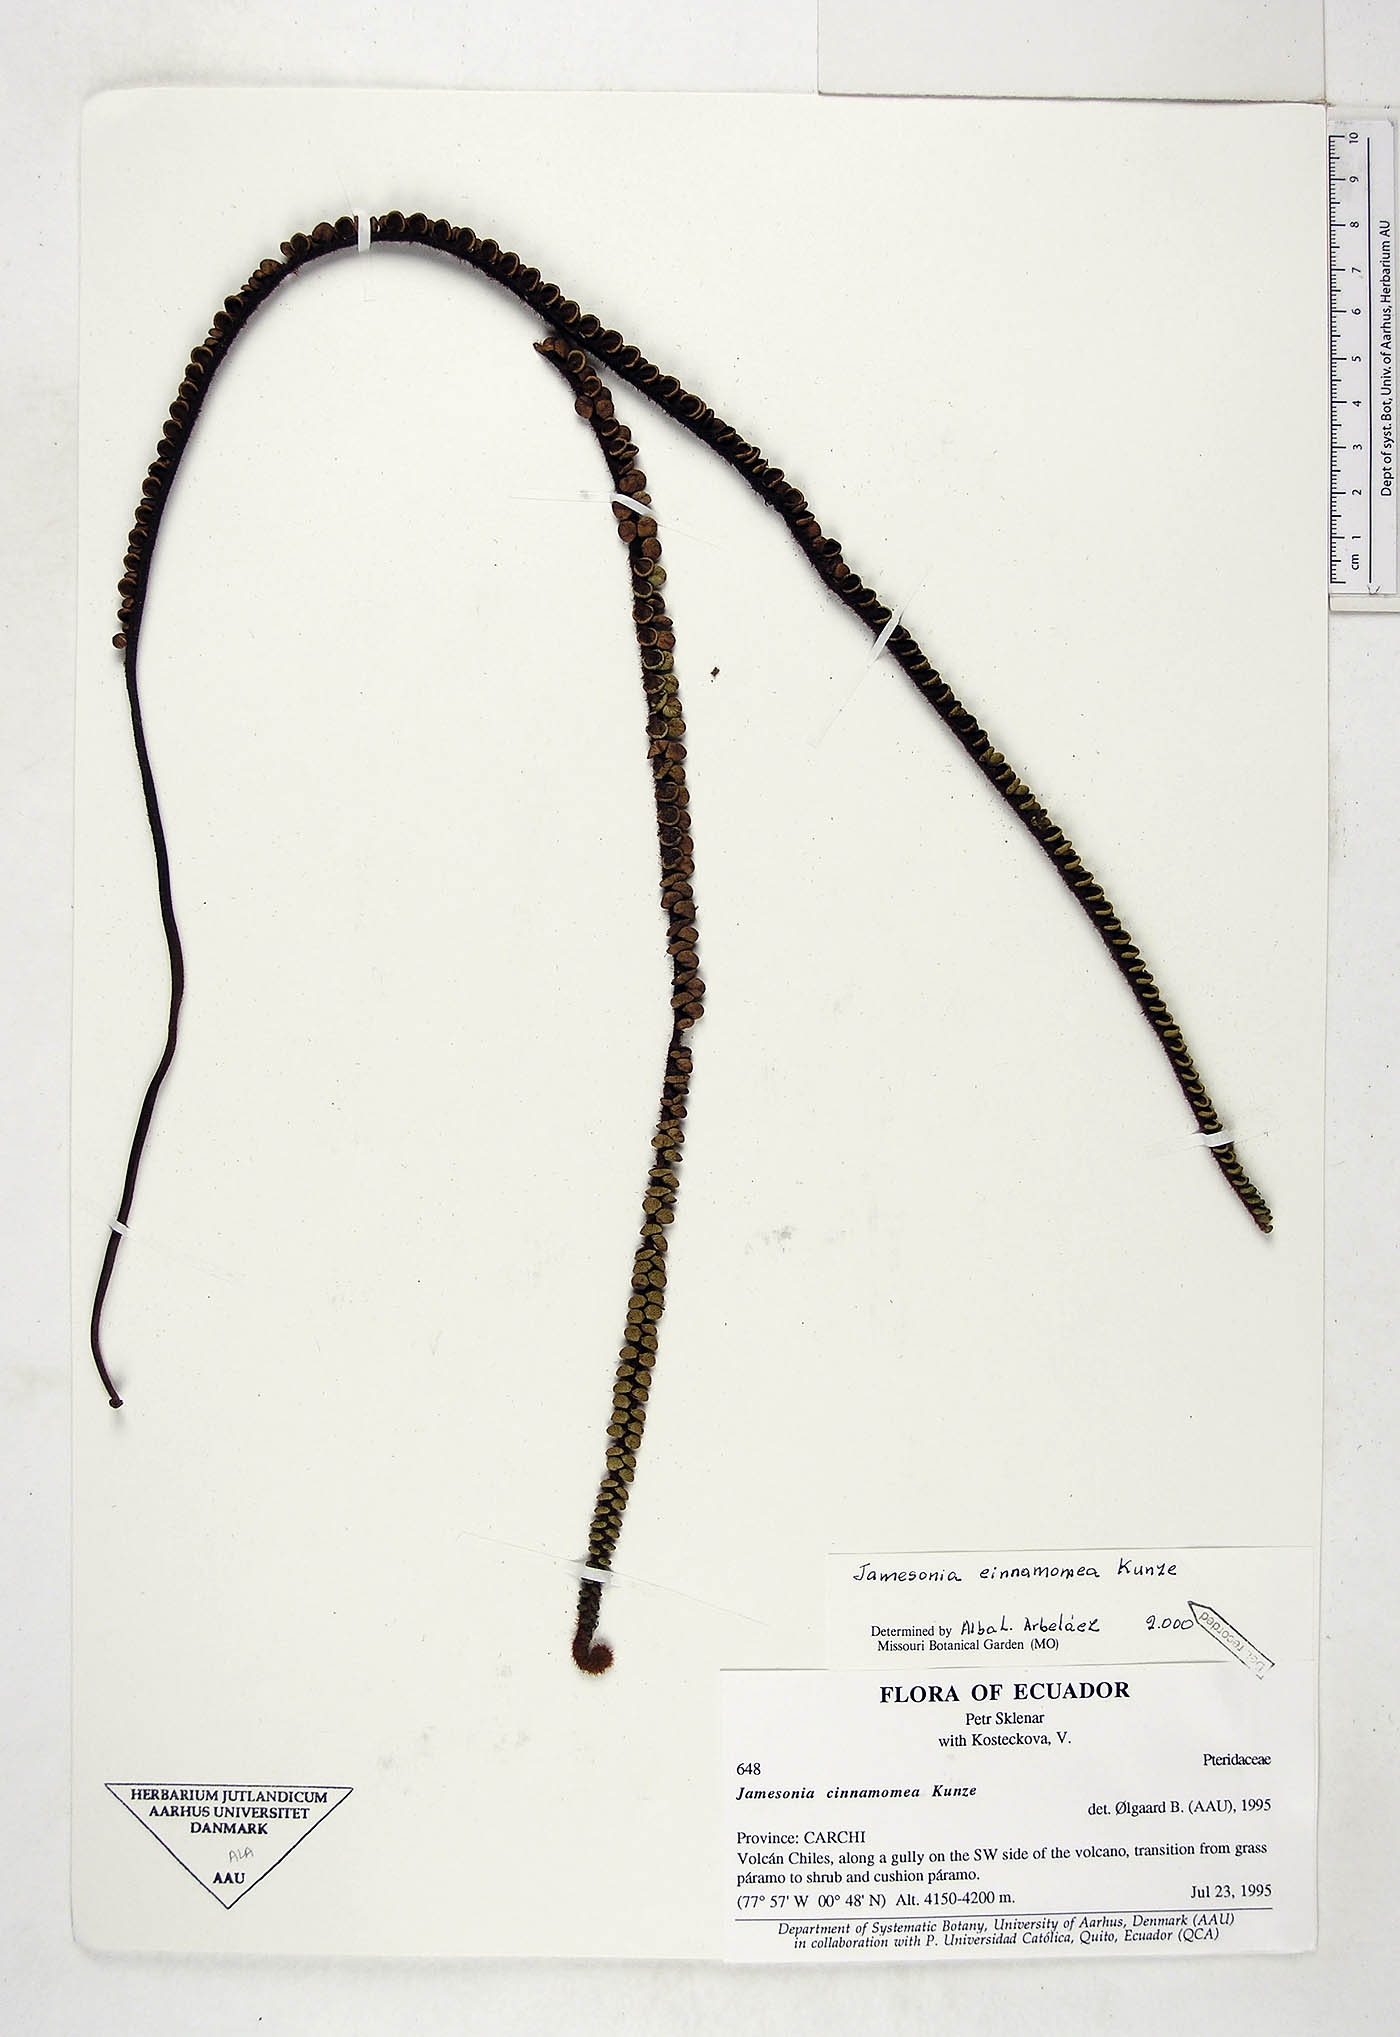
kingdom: Plantae
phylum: Tracheophyta
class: Polypodiopsida
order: Polypodiales
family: Pteridaceae
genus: Jamesonia
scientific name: Jamesonia cinnamomea
